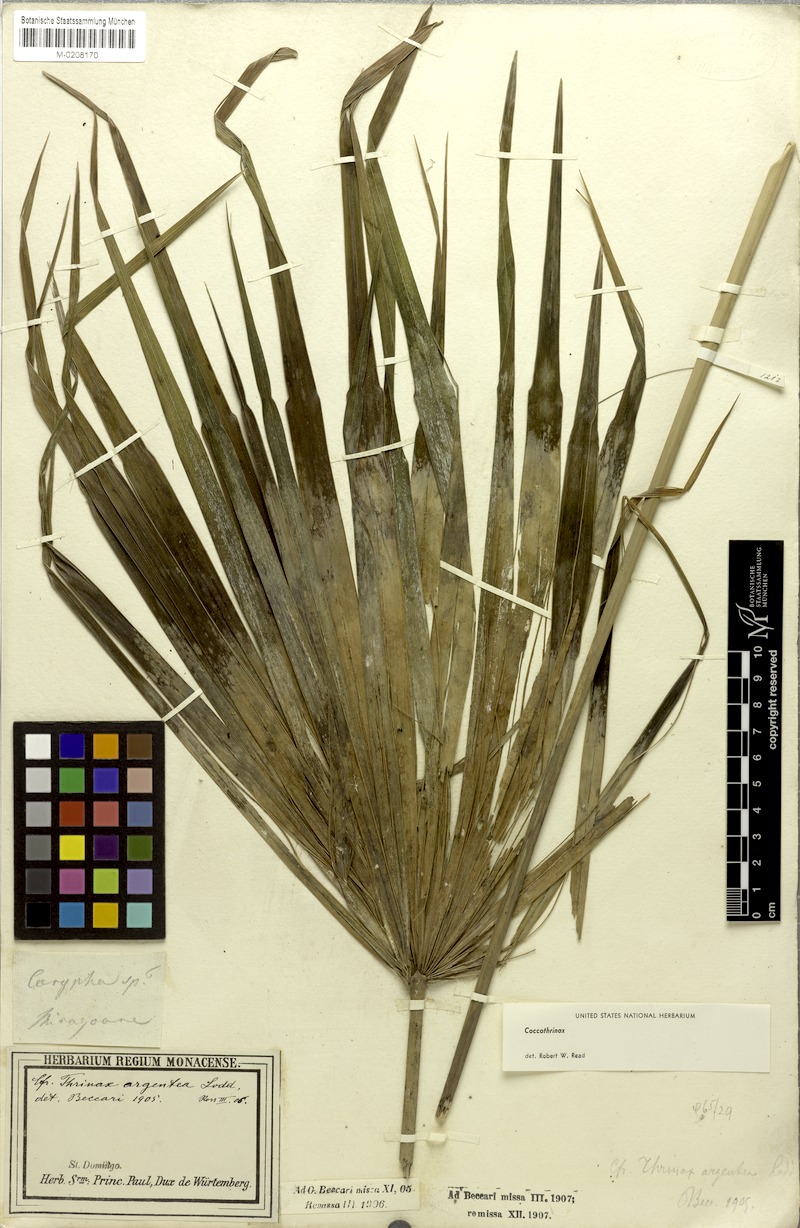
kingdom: Plantae
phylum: Tracheophyta
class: Liliopsida
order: Arecales
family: Arecaceae
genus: Coccothrinax
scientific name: Coccothrinax argentea
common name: Broom palm
